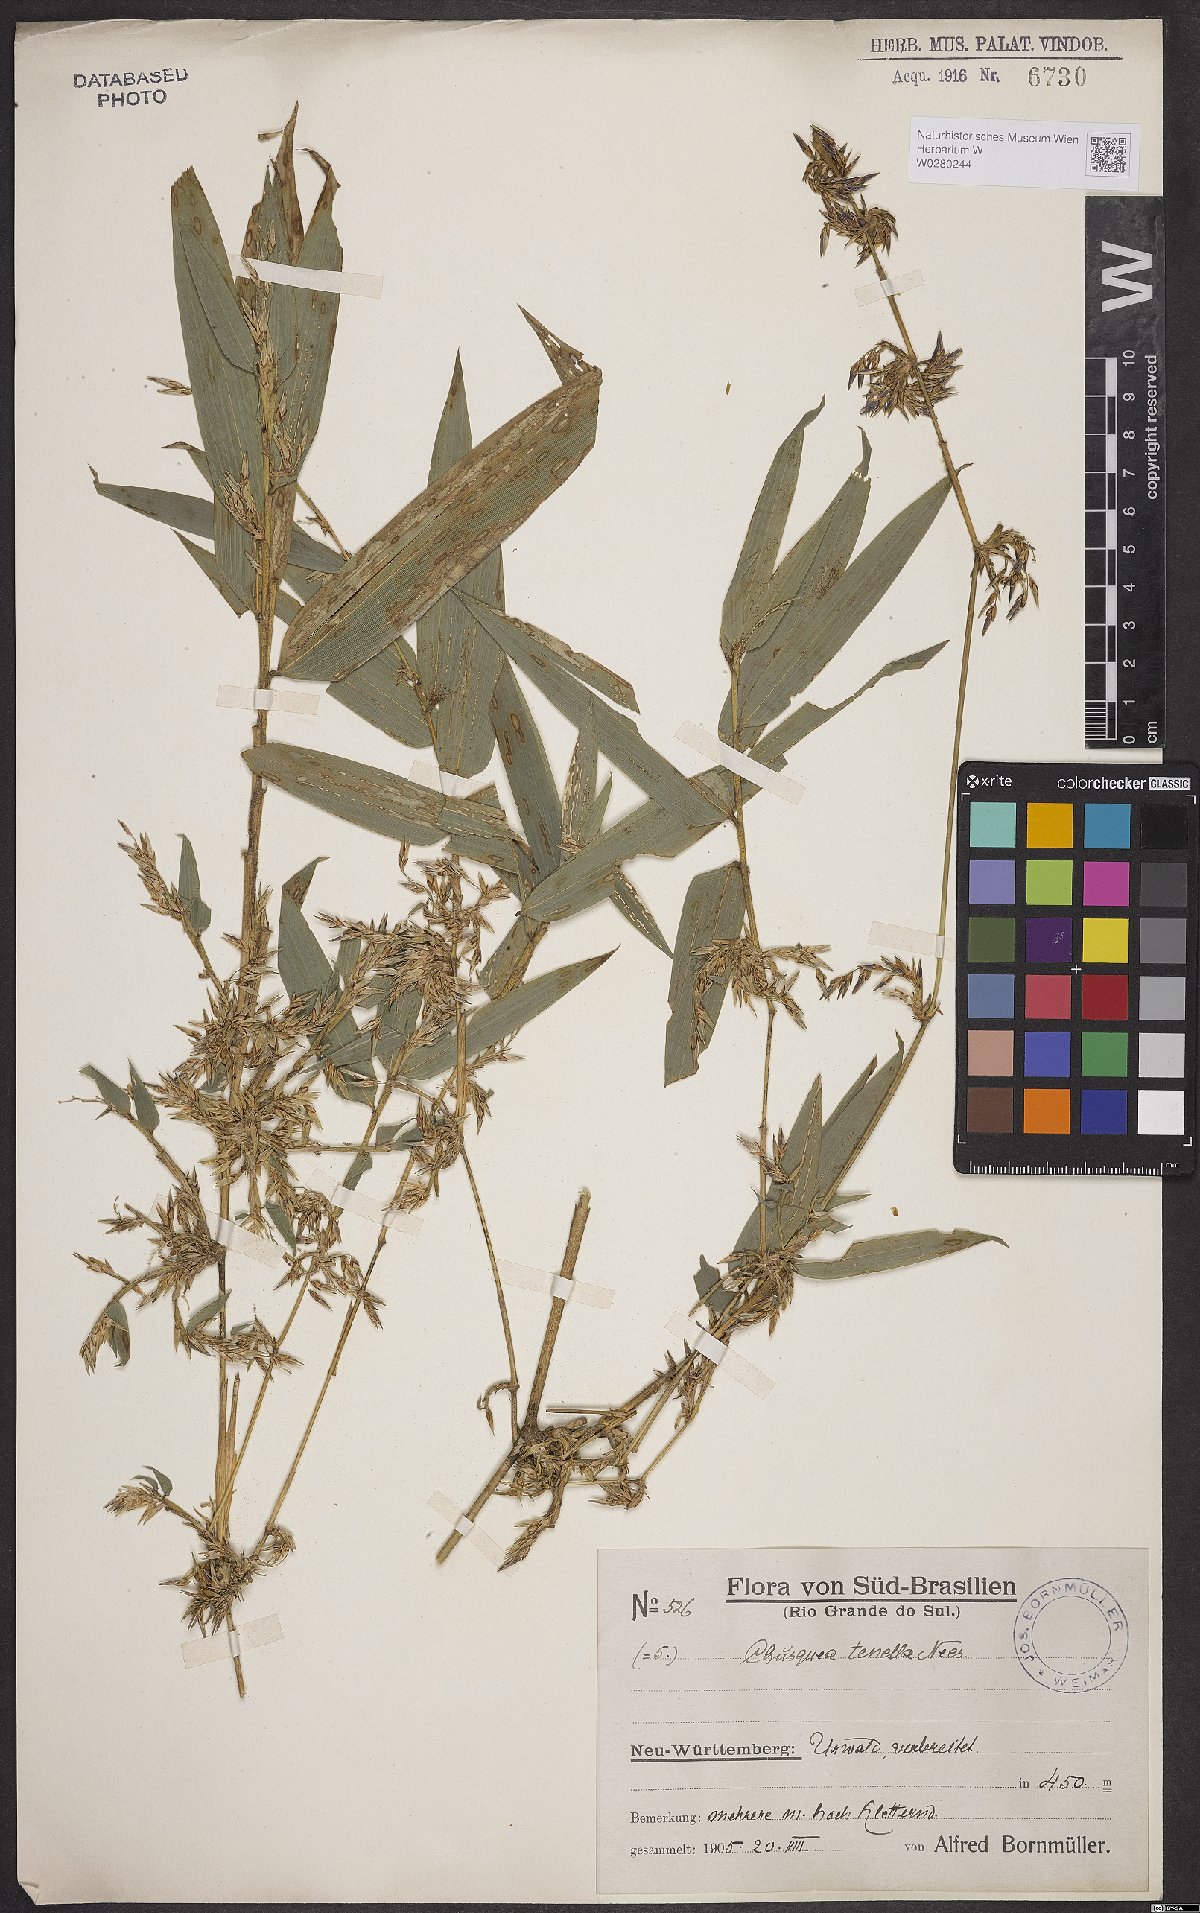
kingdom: Plantae
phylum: Tracheophyta
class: Liliopsida
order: Poales
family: Poaceae
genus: Chusquea
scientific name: Chusquea tenella
